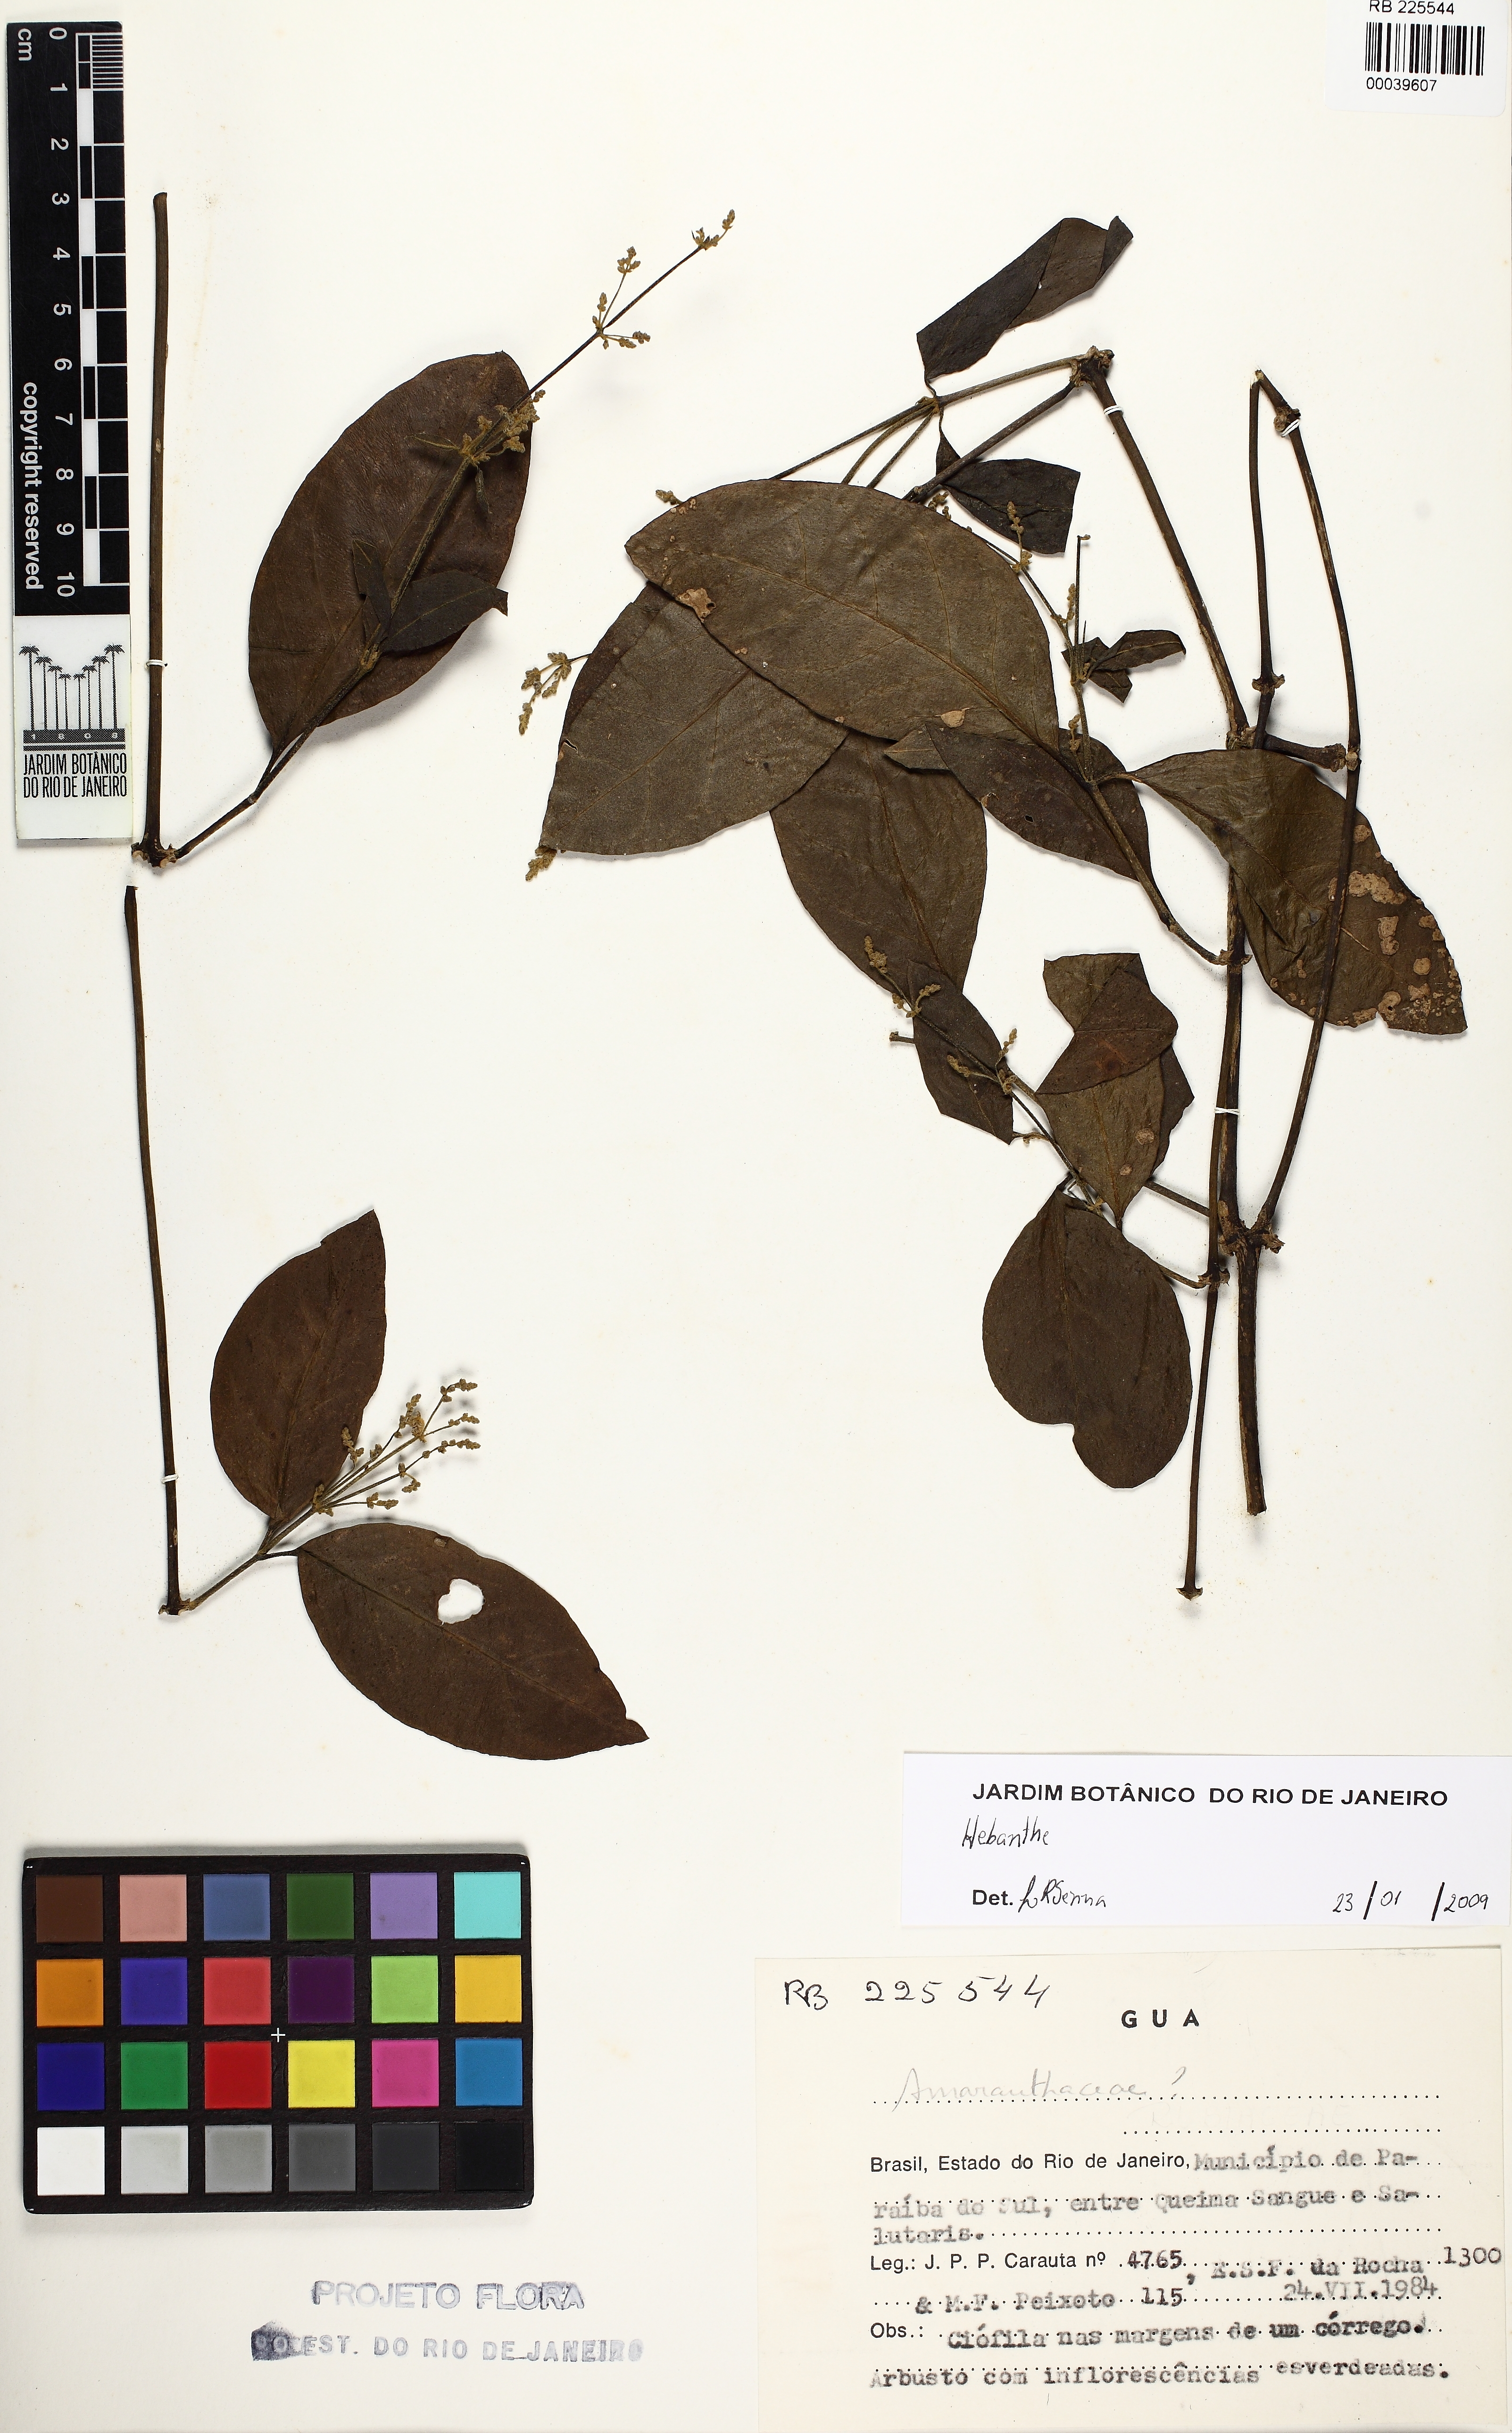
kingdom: Plantae
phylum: Tracheophyta
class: Magnoliopsida
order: Caryophyllales
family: Amaranthaceae
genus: Hebanthe
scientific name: Hebanthe
